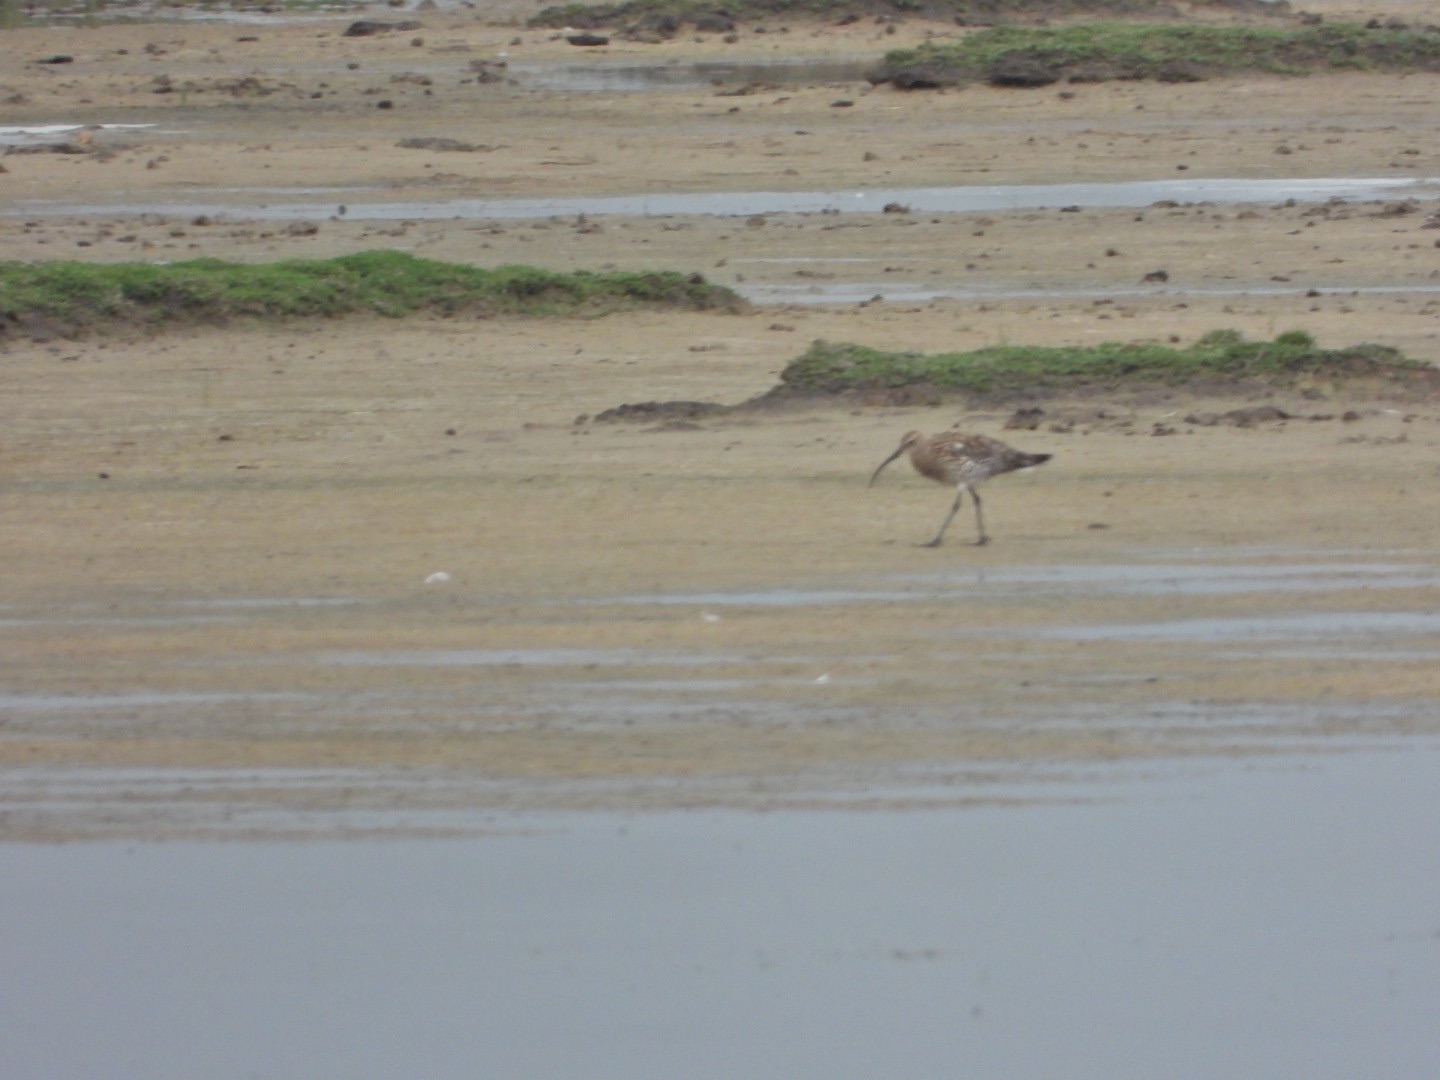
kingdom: Animalia
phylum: Chordata
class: Aves
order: Charadriiformes
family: Scolopacidae
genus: Numenius
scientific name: Numenius arquata
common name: Storspove
